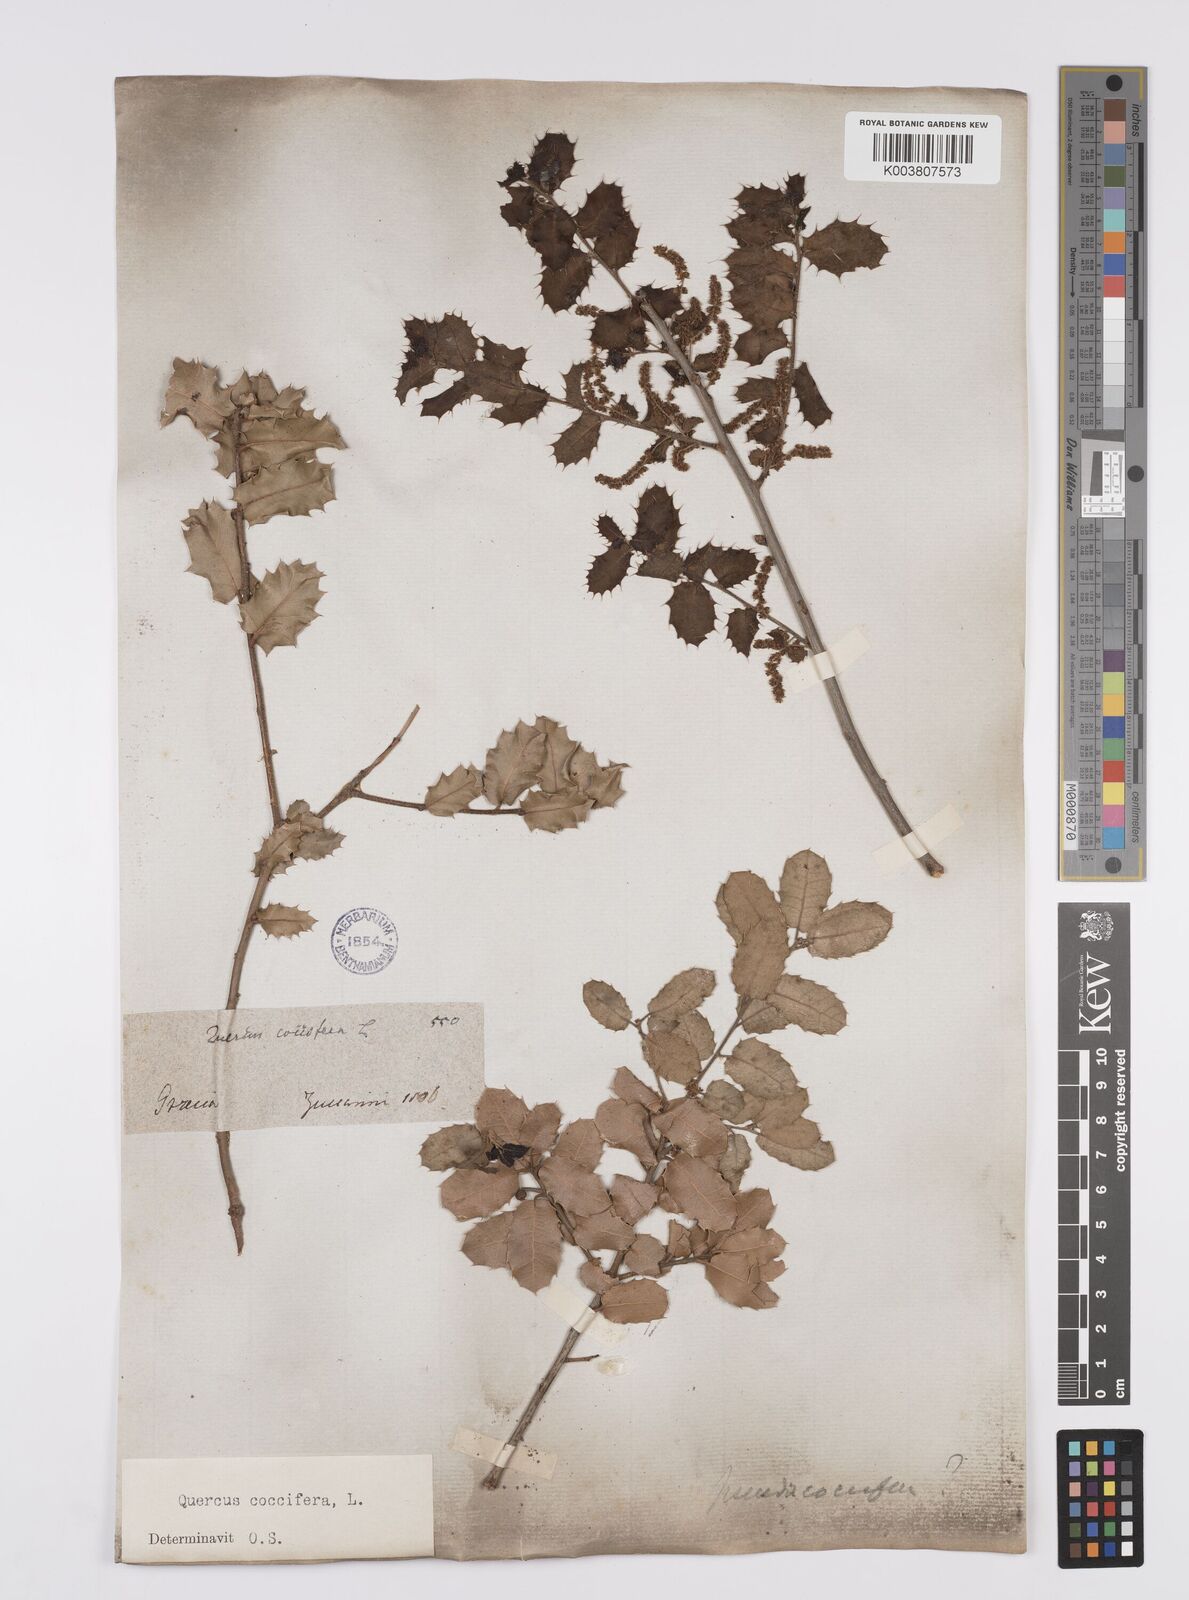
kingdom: Plantae
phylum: Tracheophyta
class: Magnoliopsida
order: Fagales
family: Fagaceae
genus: Quercus
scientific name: Quercus coccifera
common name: Kermes oak
